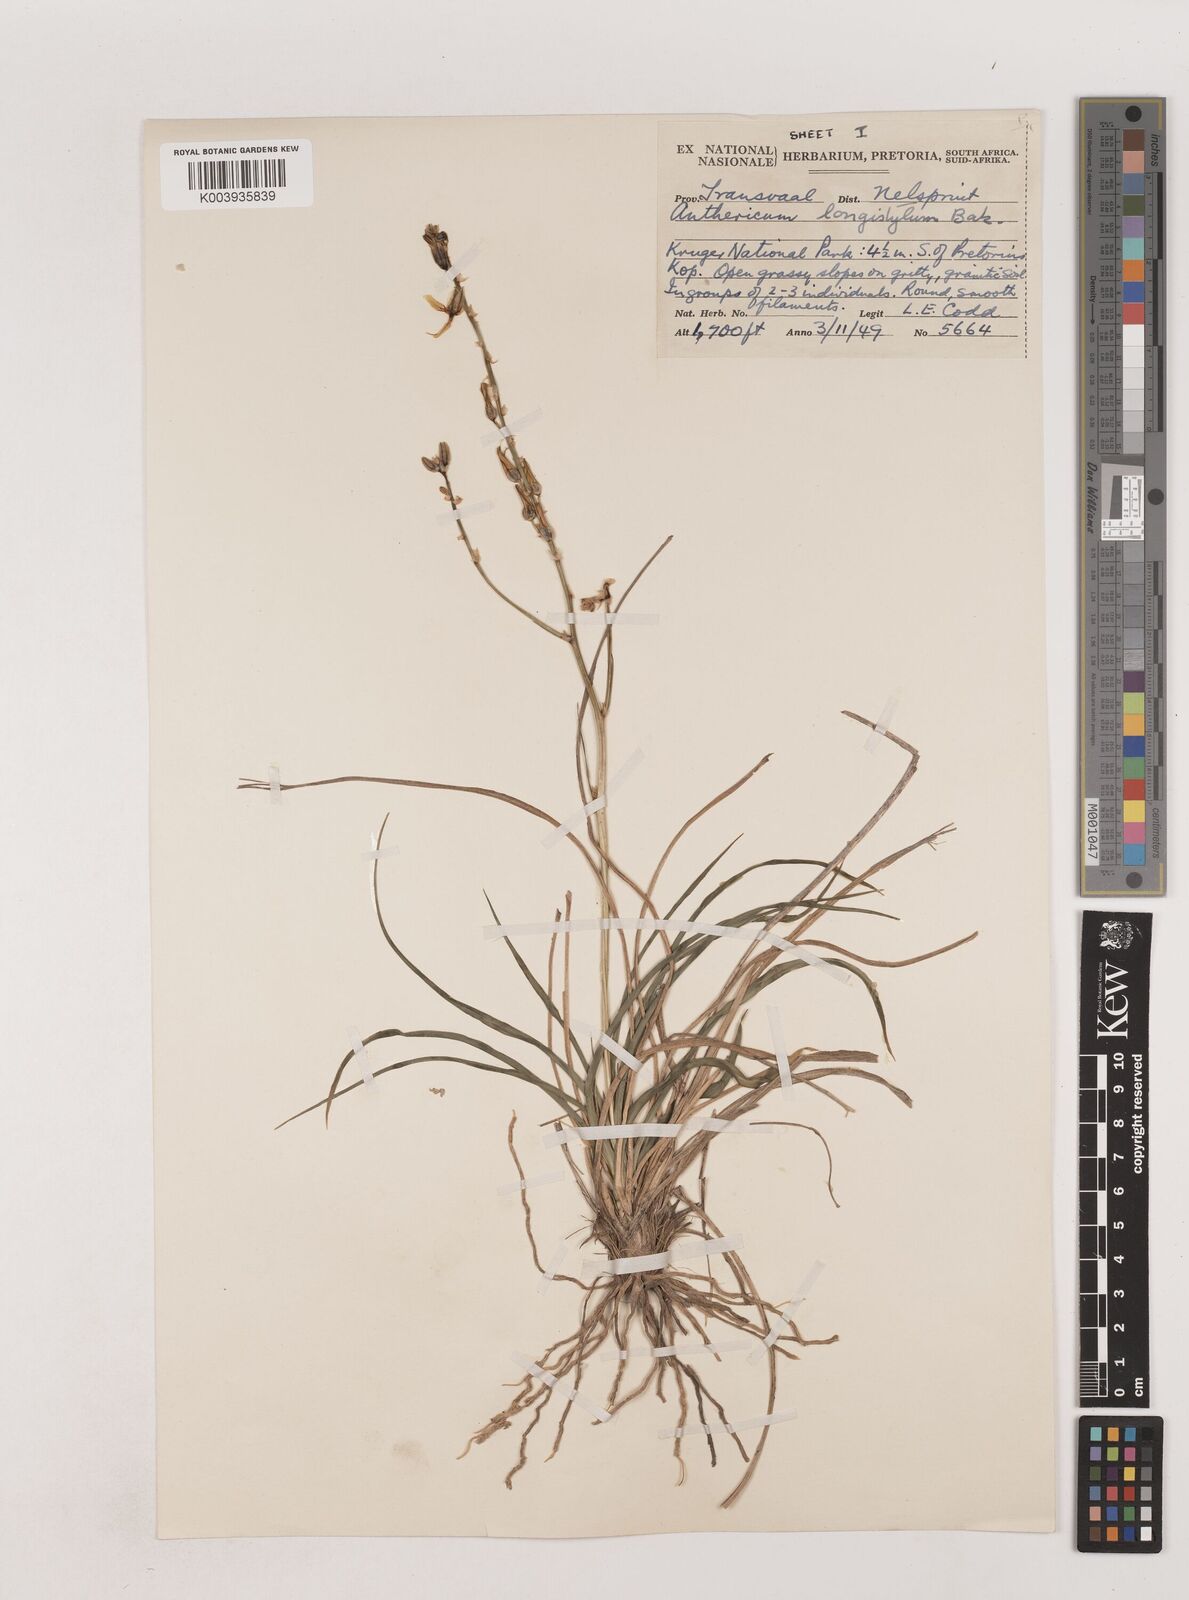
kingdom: Plantae
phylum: Tracheophyta
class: Liliopsida
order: Asparagales
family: Asparagaceae
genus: Chlorophytum
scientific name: Chlorophytum recurvifolium
